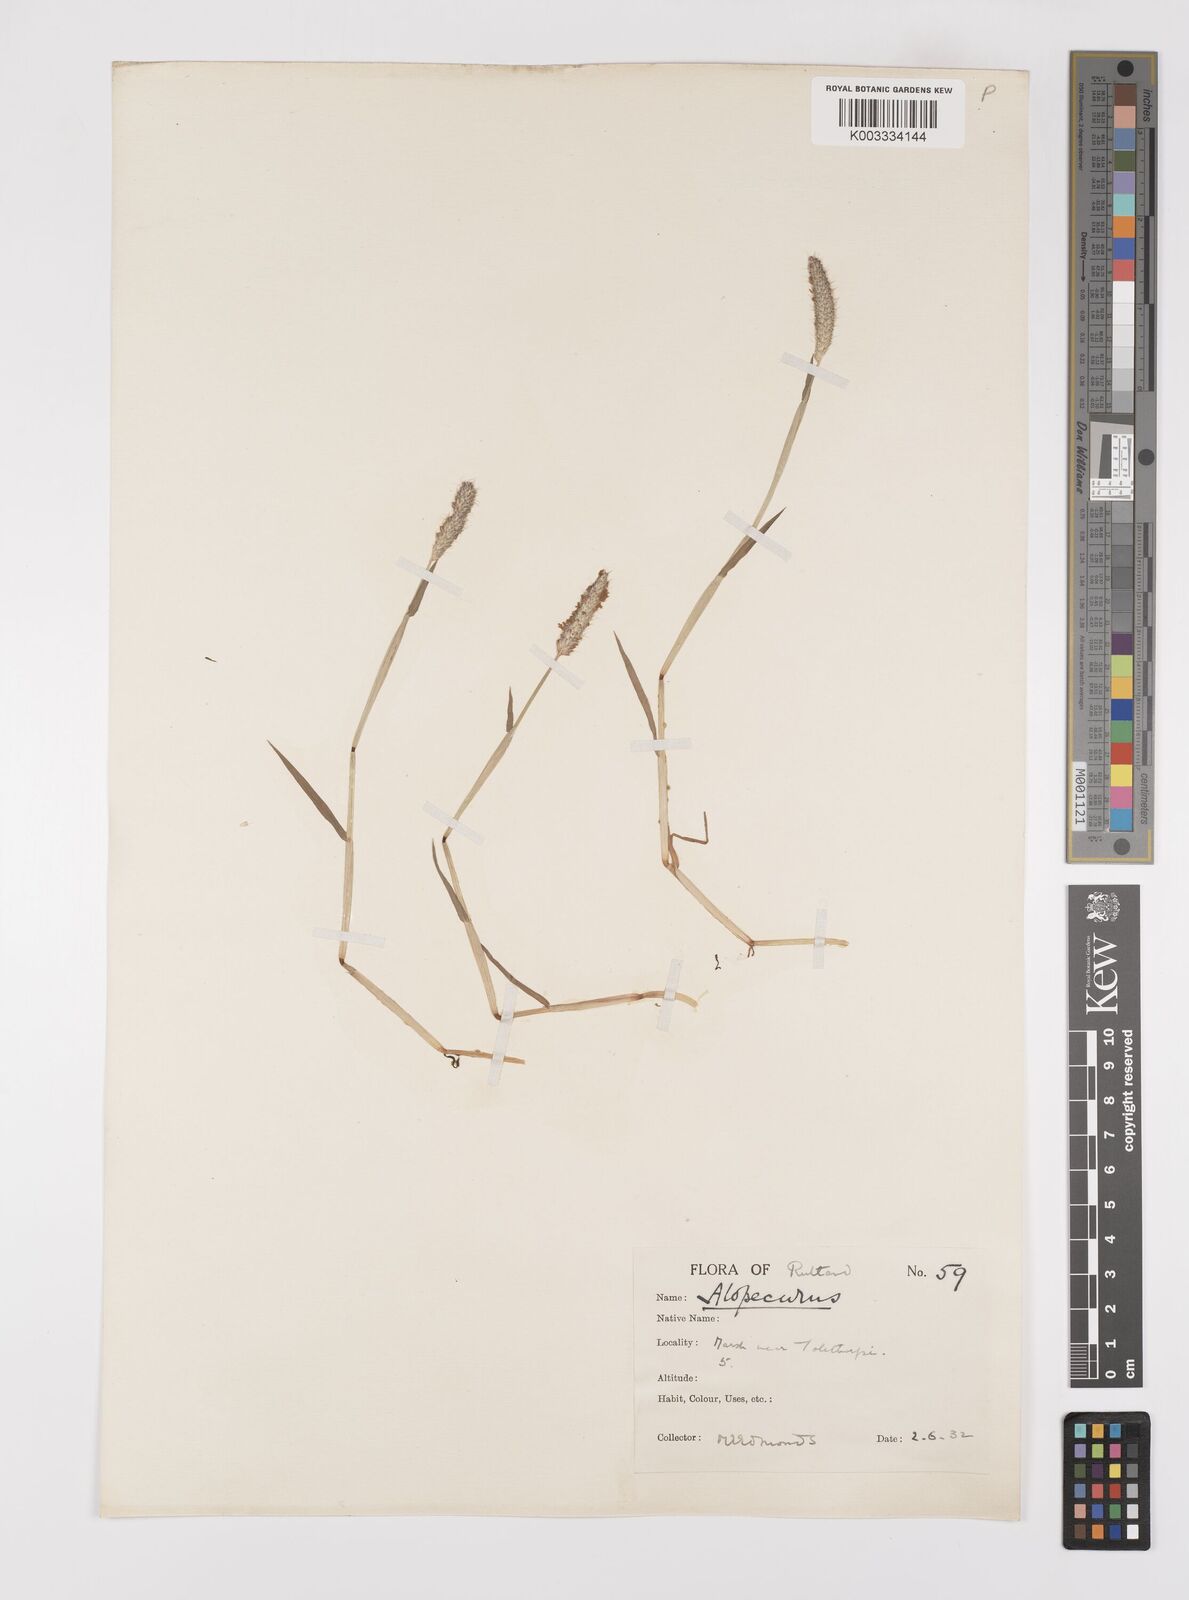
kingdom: Plantae
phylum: Tracheophyta
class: Liliopsida
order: Poales
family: Poaceae
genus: Alopecurus
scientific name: Alopecurus geniculatus
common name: Water foxtail
